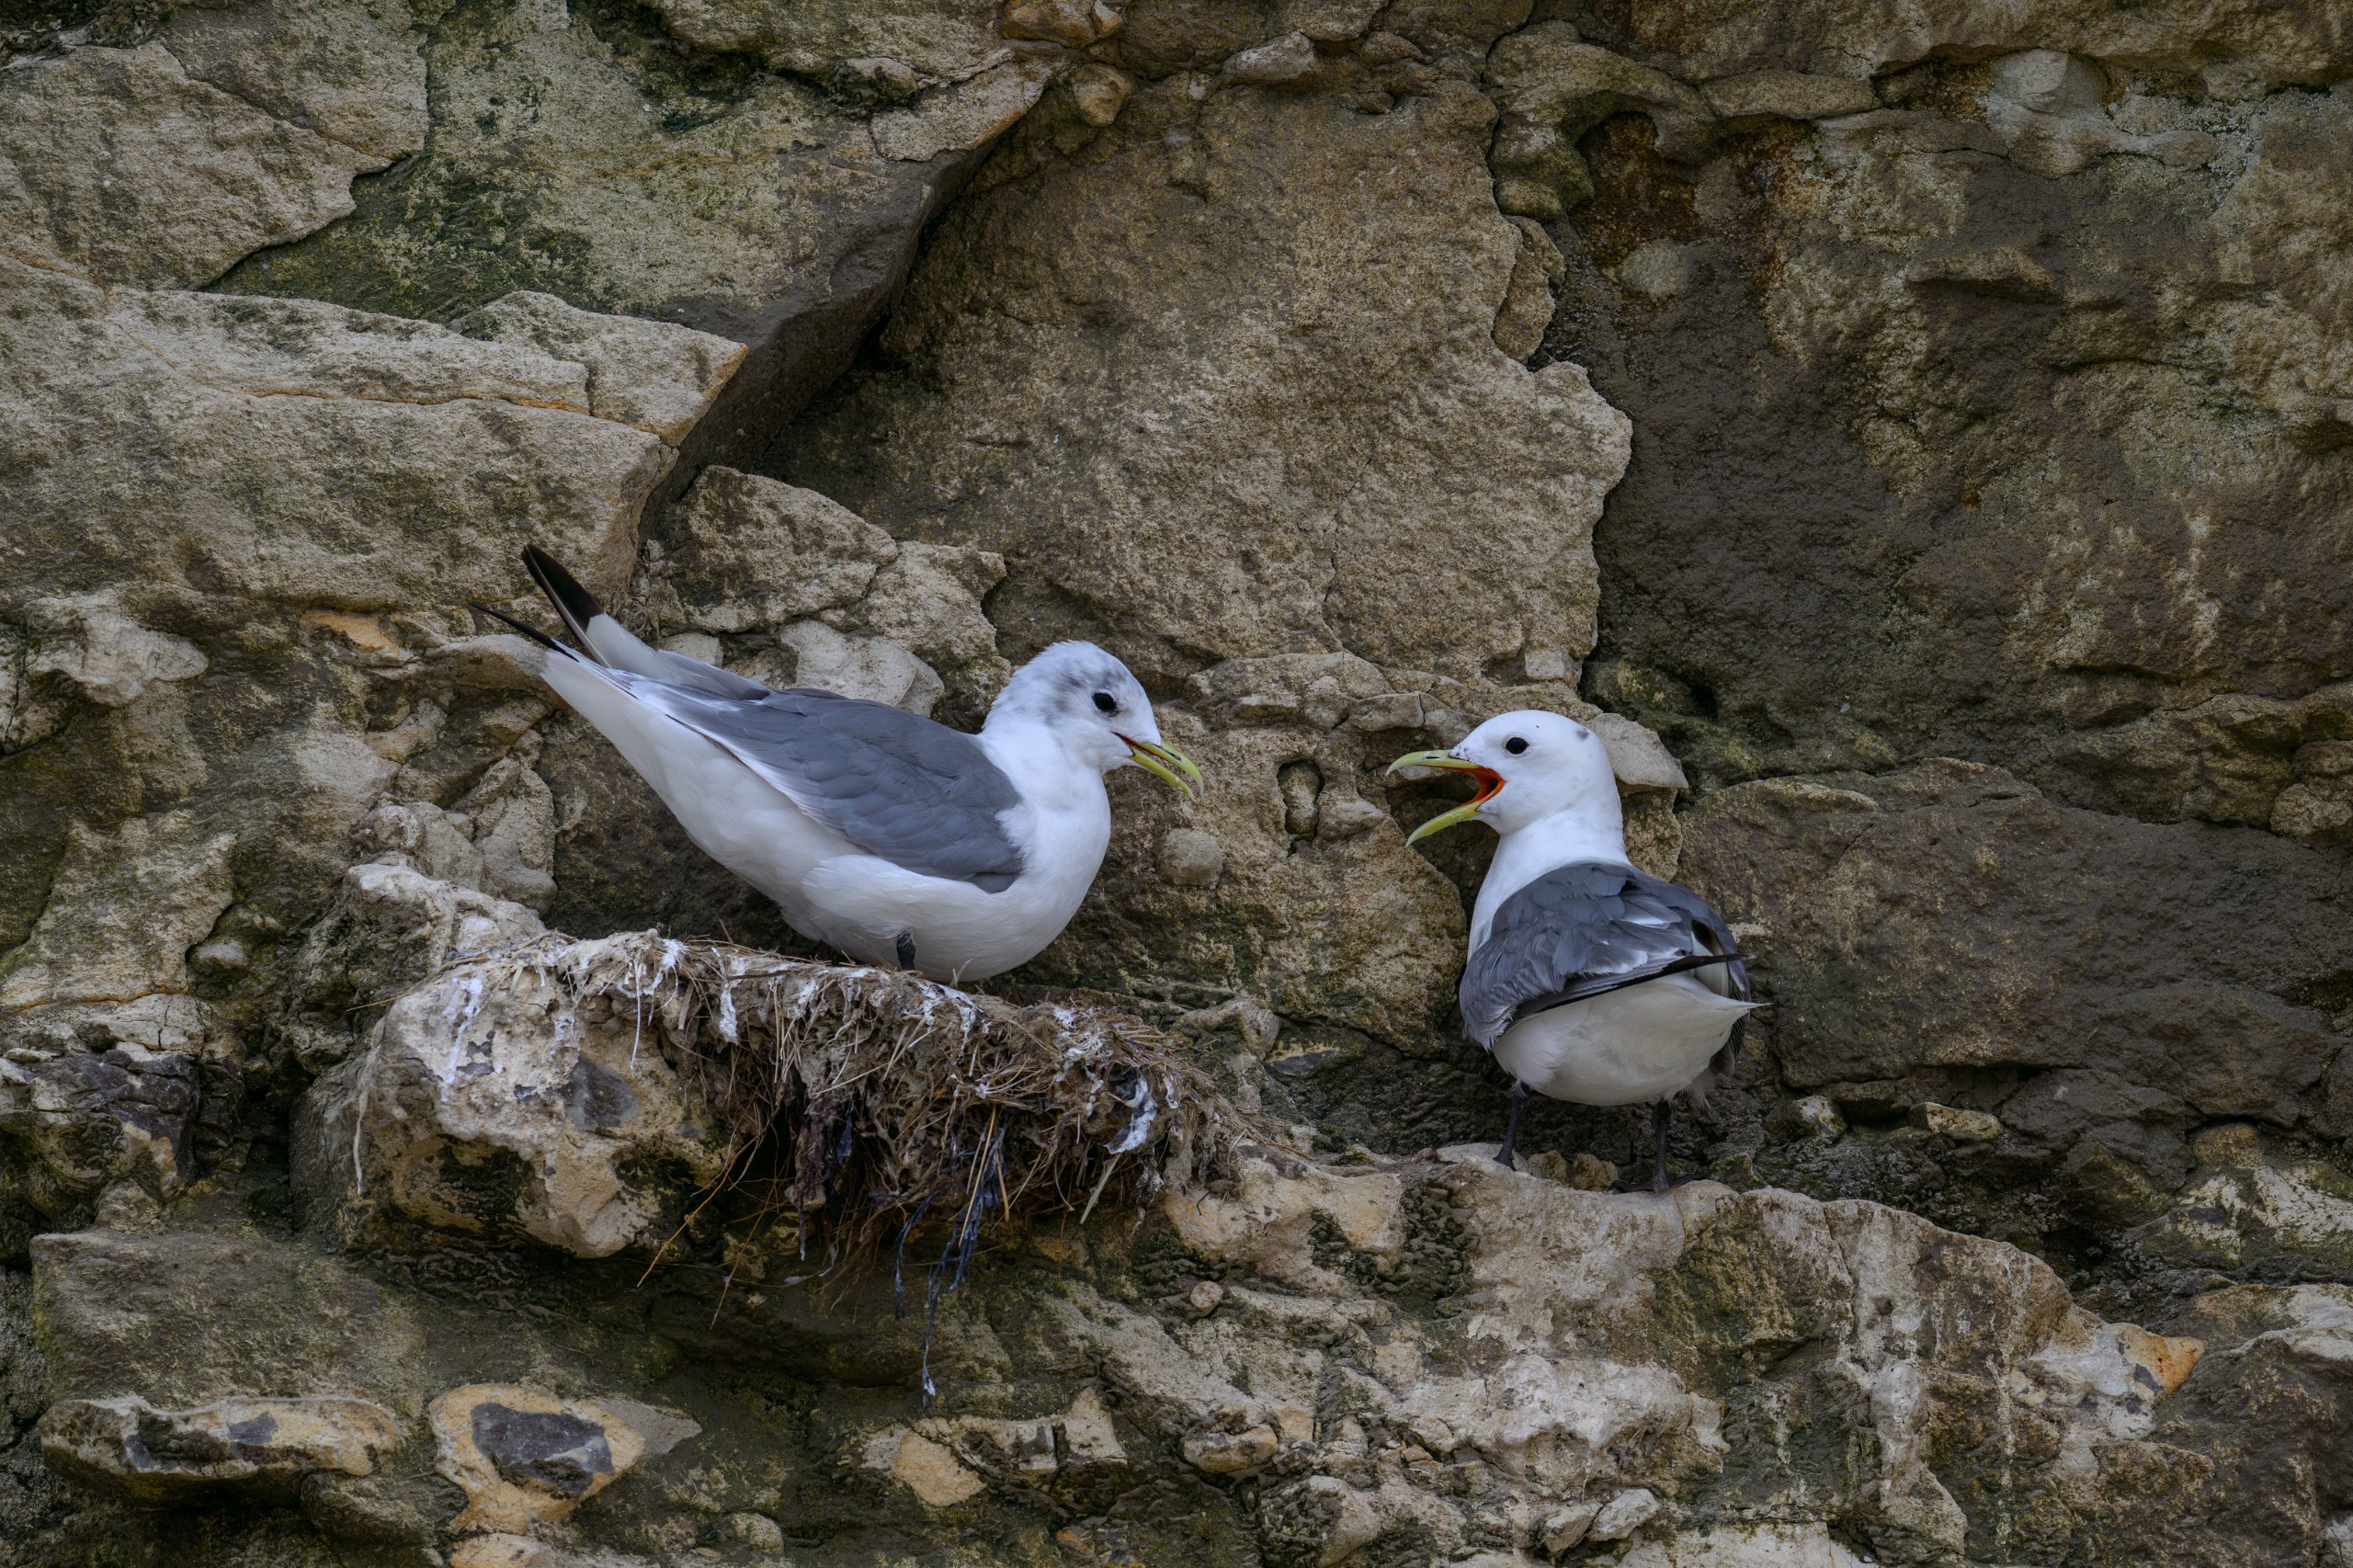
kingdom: Animalia
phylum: Chordata
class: Aves
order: Charadriiformes
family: Laridae
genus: Rissa
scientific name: Rissa tridactyla
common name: Ride
